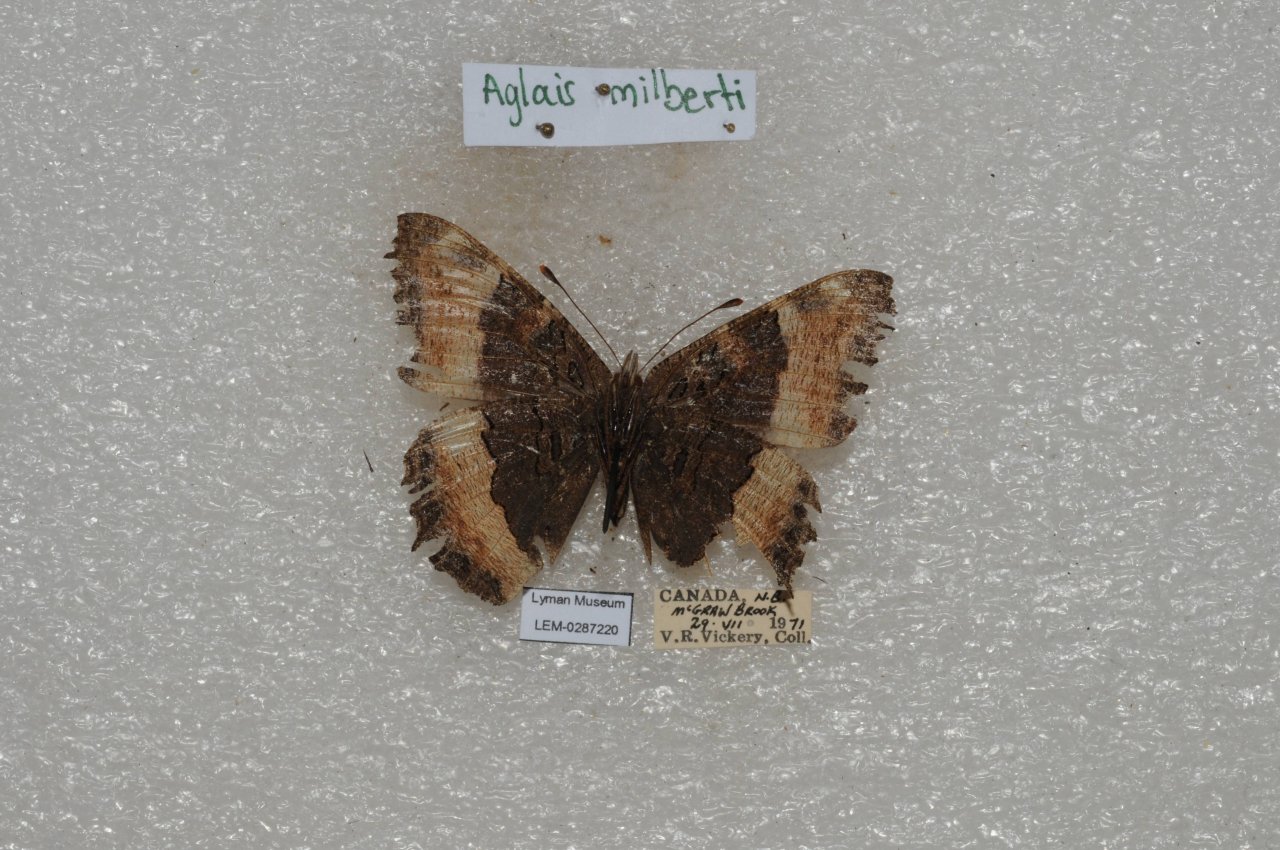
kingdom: Animalia
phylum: Arthropoda
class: Insecta
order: Lepidoptera
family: Nymphalidae
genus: Aglais
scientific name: Aglais milberti
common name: Milbert's Tortoiseshell
